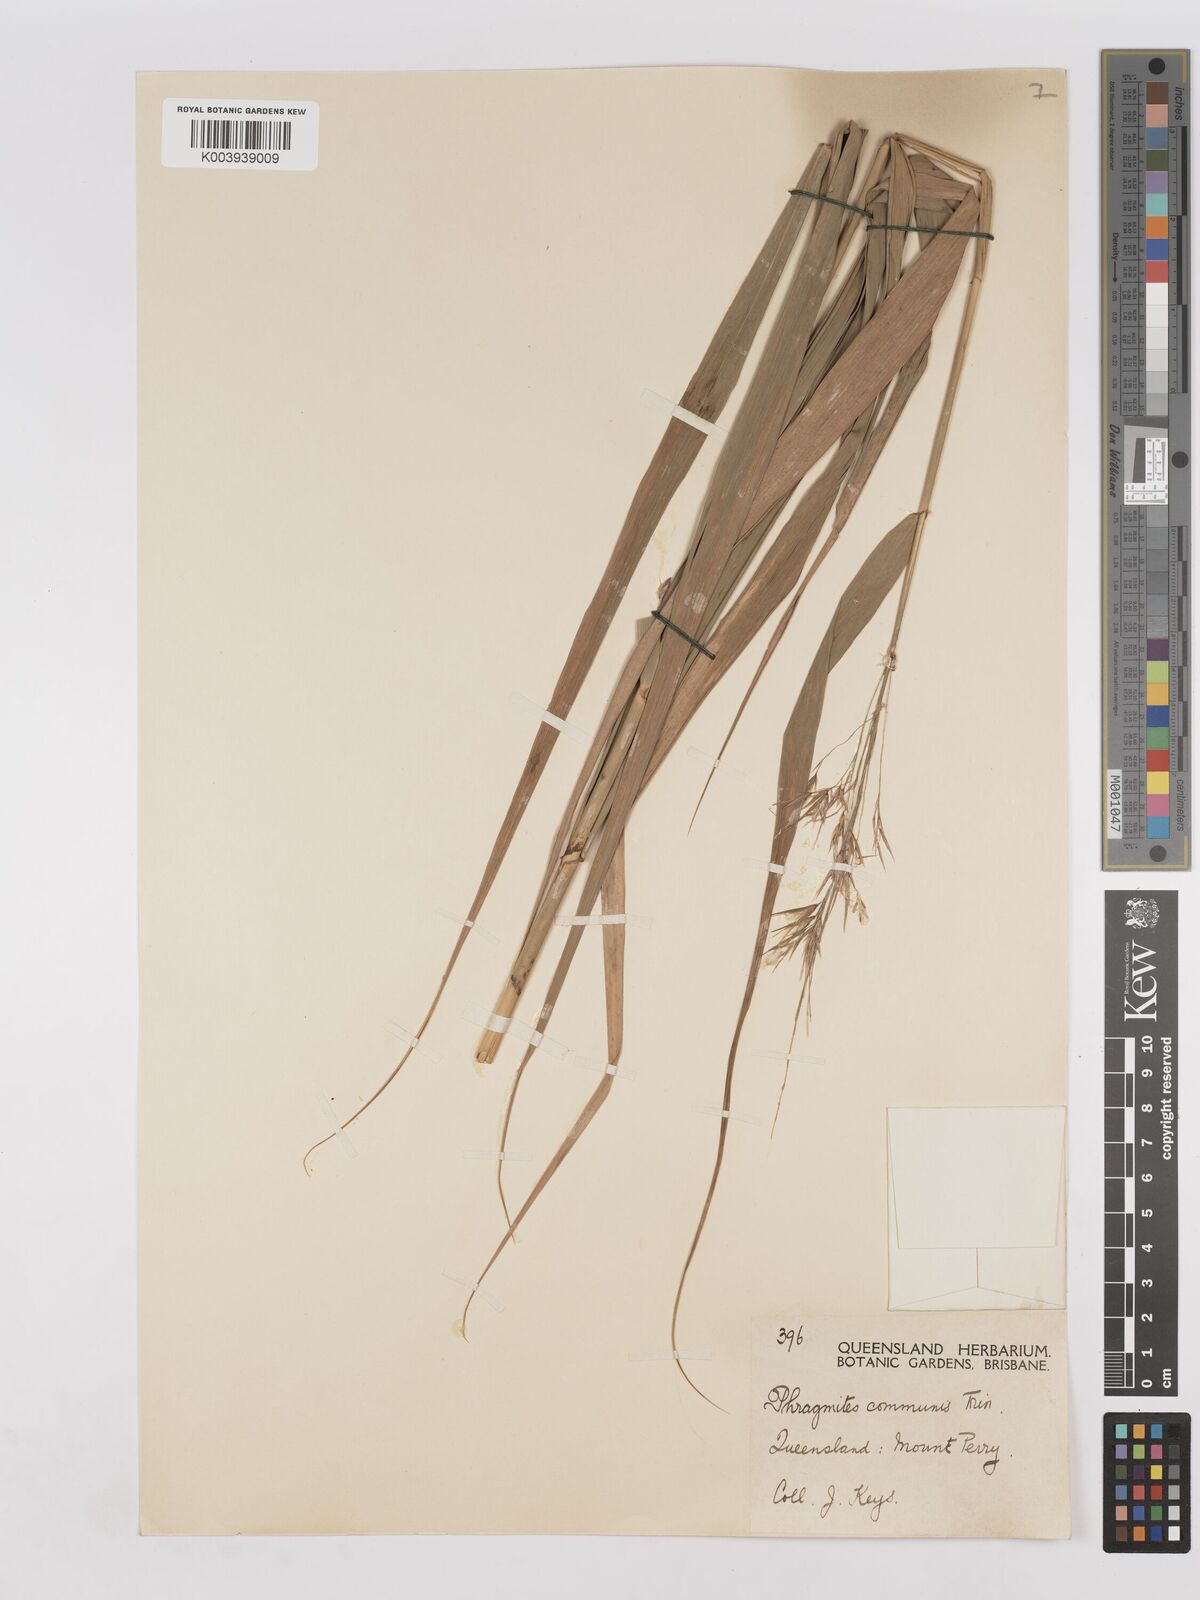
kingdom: Plantae
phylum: Tracheophyta
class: Liliopsida
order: Poales
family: Poaceae
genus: Phragmites
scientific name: Phragmites australis
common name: Common reed
